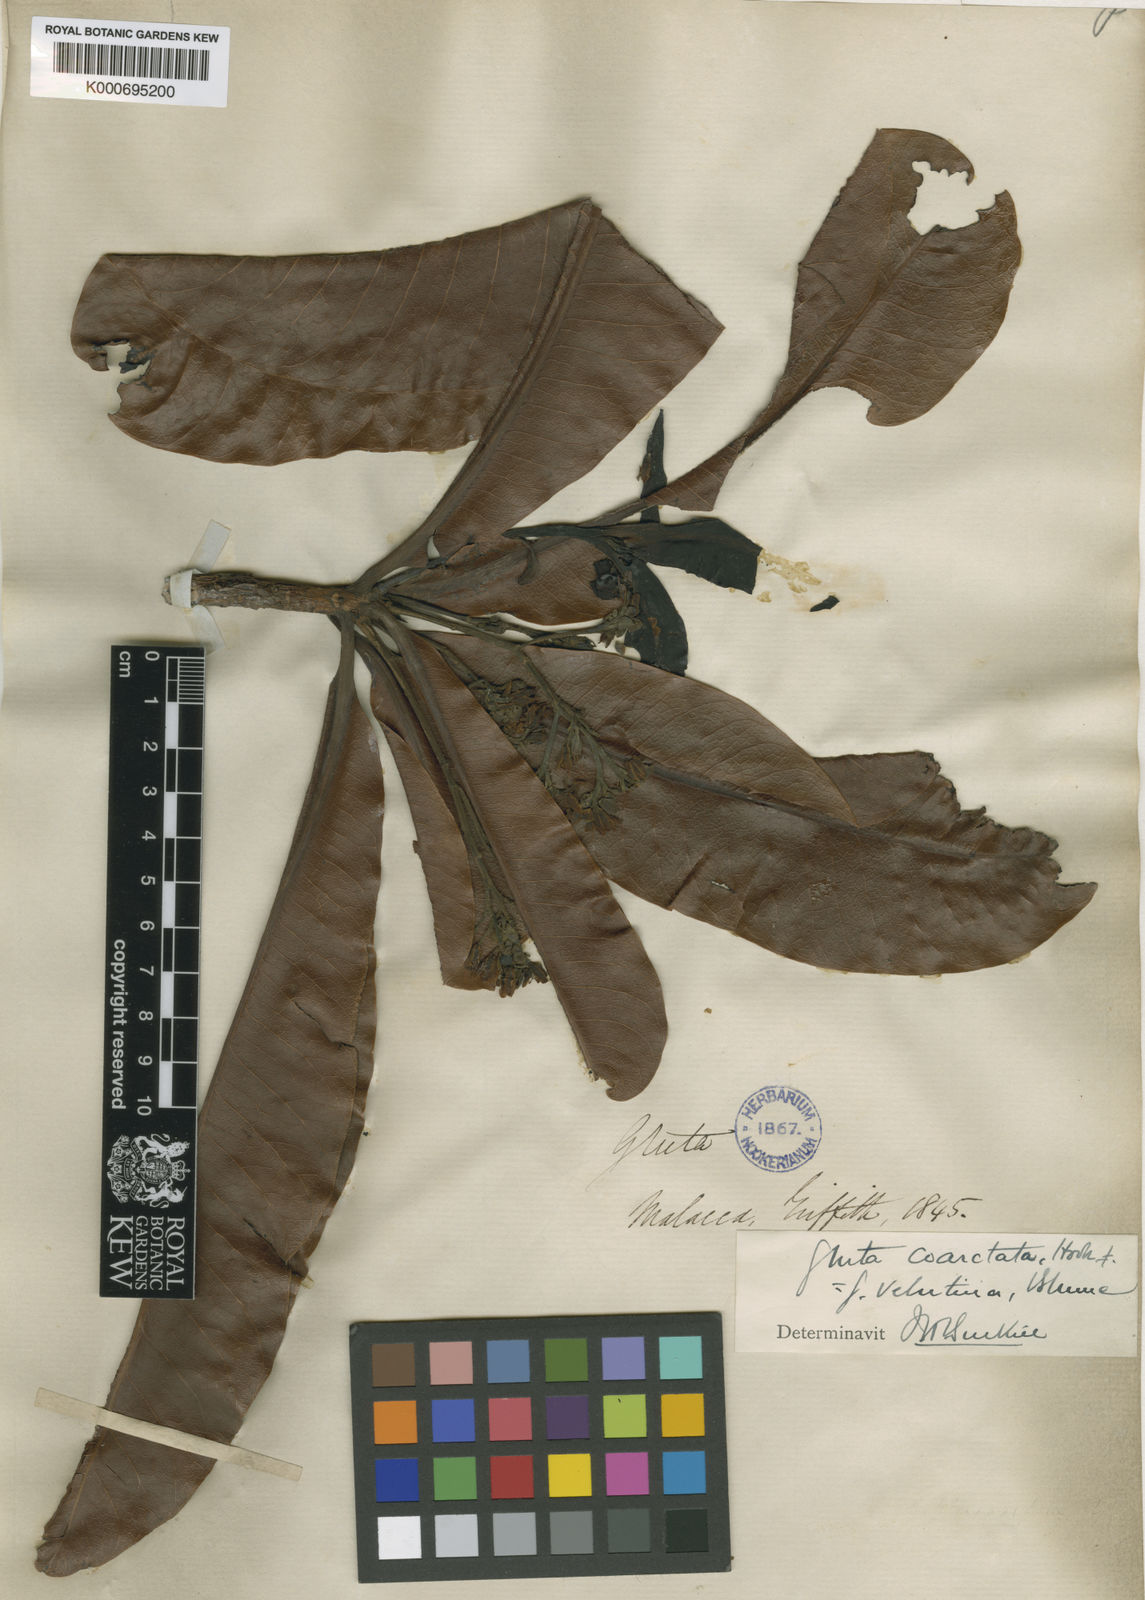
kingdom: Plantae
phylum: Tracheophyta
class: Magnoliopsida
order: Sapindales
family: Anacardiaceae
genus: Gluta
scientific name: Gluta velutina
